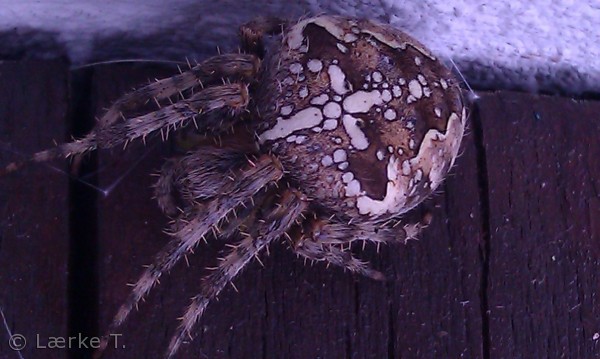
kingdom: Animalia
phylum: Arthropoda
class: Arachnida
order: Araneae
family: Araneidae
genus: Araneus
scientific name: Araneus diadematus
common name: Korsedderkop
